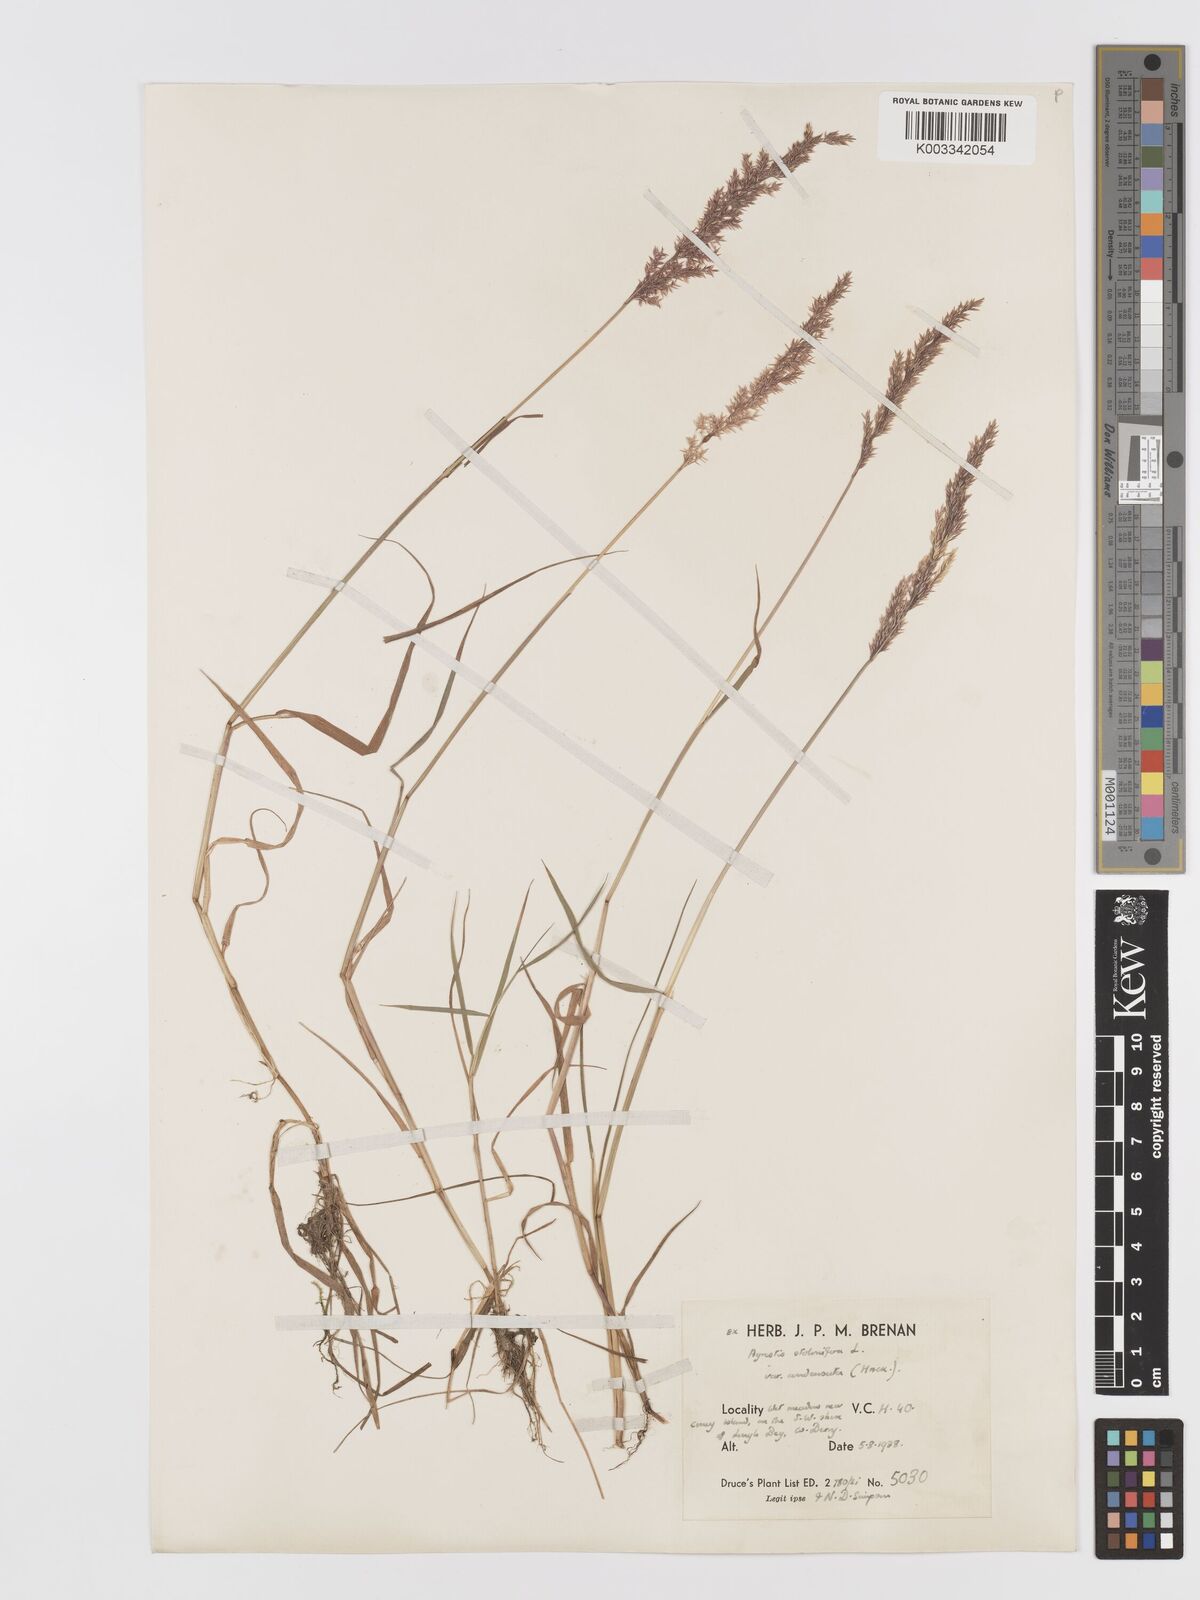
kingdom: Plantae
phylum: Tracheophyta
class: Liliopsida
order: Poales
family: Poaceae
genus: Agrostis
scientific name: Agrostis stolonifera
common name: Creeping bentgrass
